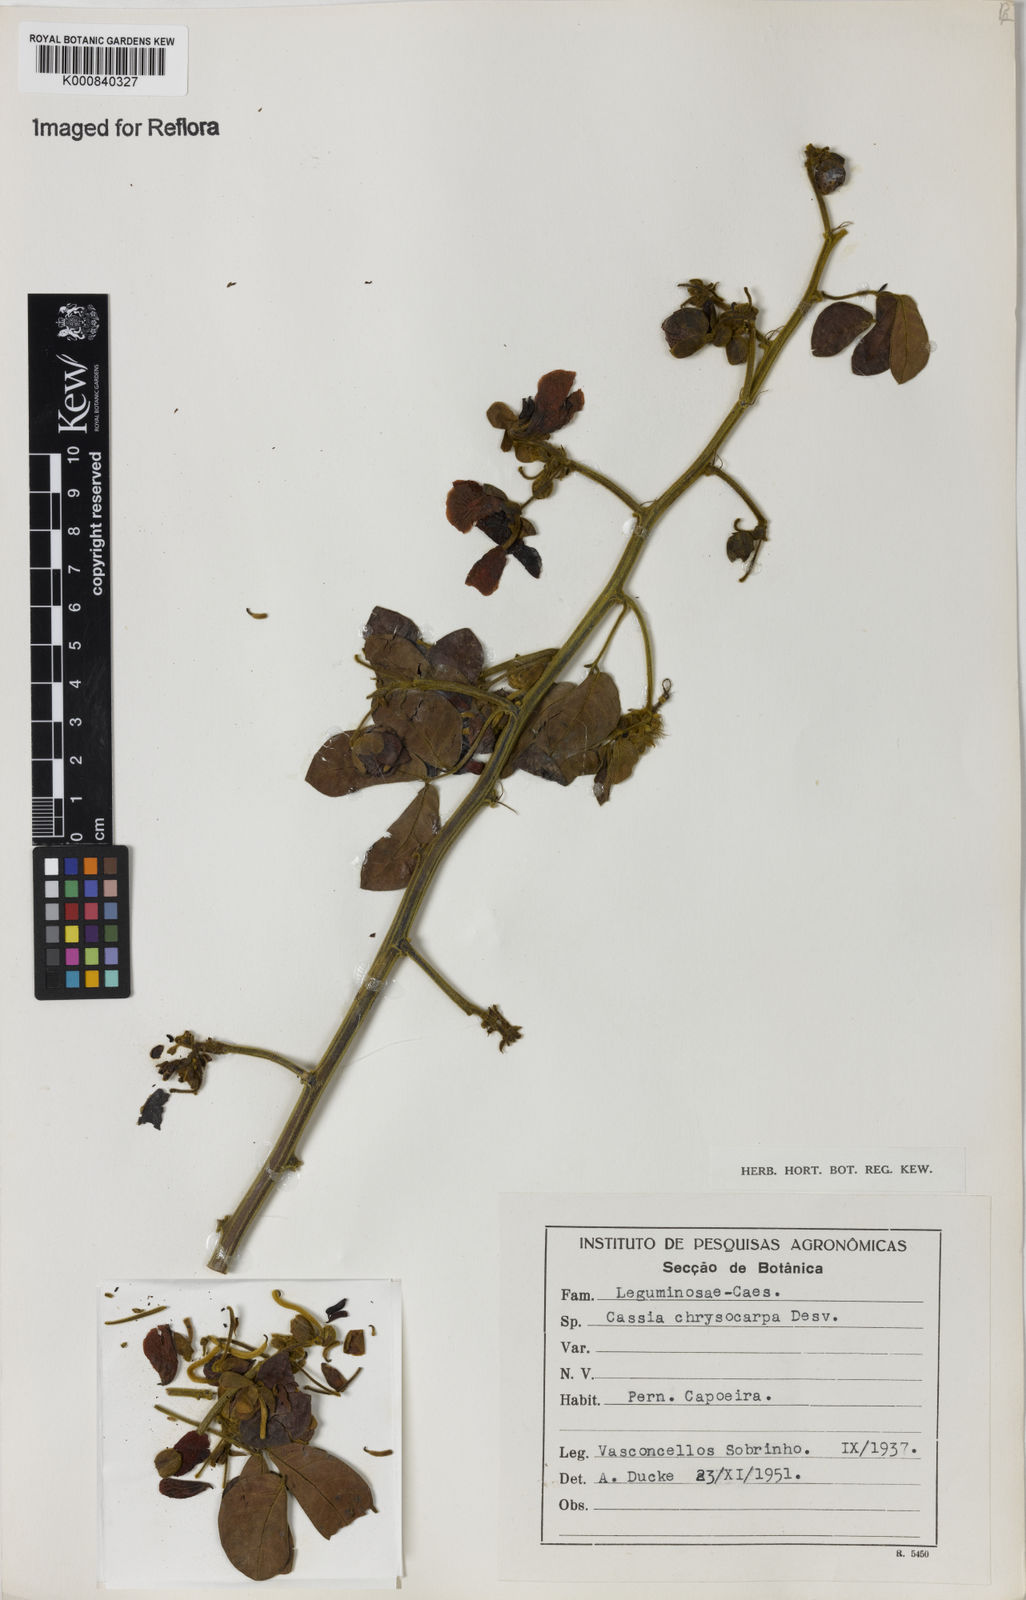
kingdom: Plantae
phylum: Tracheophyta
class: Magnoliopsida
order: Fabales
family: Fabaceae
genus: Senna
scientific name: Senna chrysocarpa
